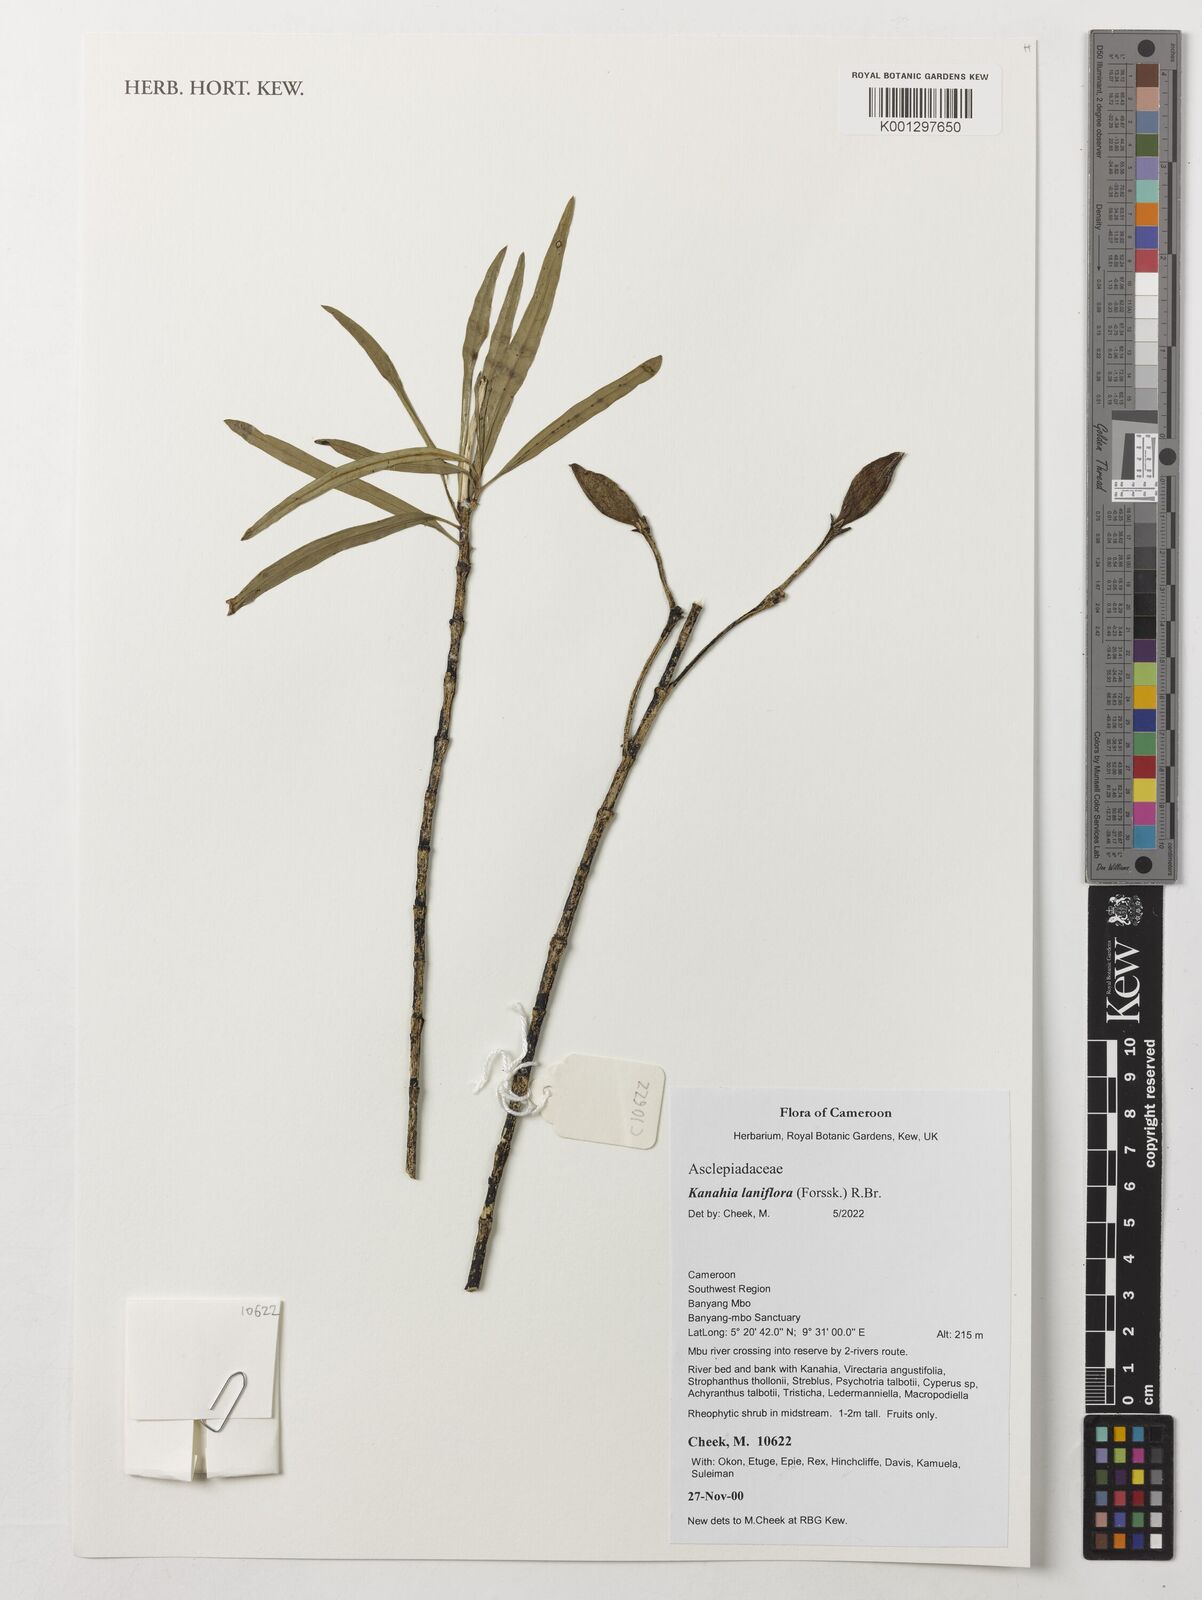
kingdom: Plantae
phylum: Tracheophyta
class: Magnoliopsida
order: Gentianales
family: Apocynaceae
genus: Kanahia
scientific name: Kanahia laniflora
